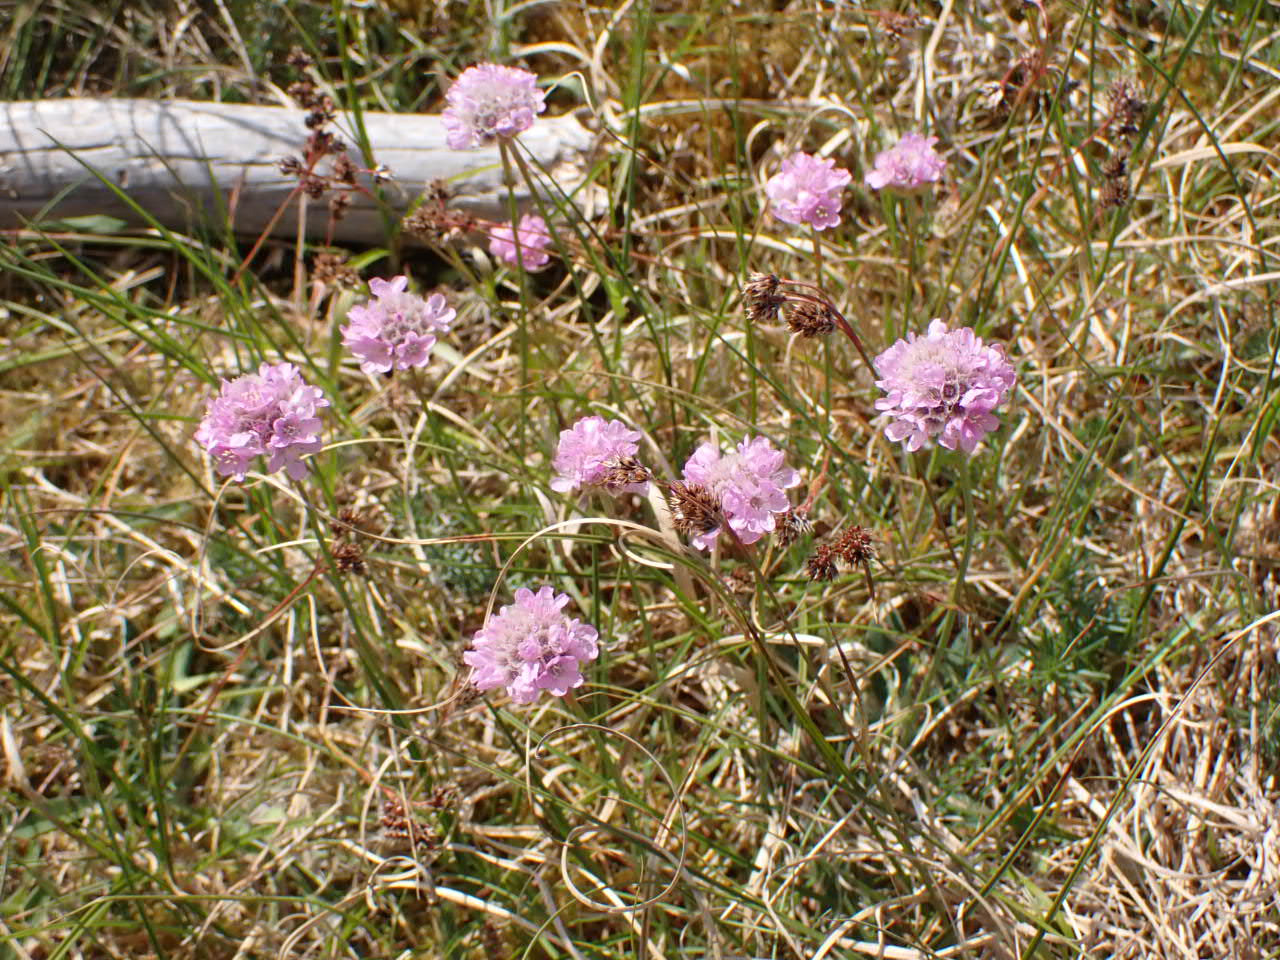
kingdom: Plantae
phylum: Tracheophyta
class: Magnoliopsida
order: Caryophyllales
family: Plumbaginaceae
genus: Armeria
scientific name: Armeria maritima
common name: Engelskgræs
